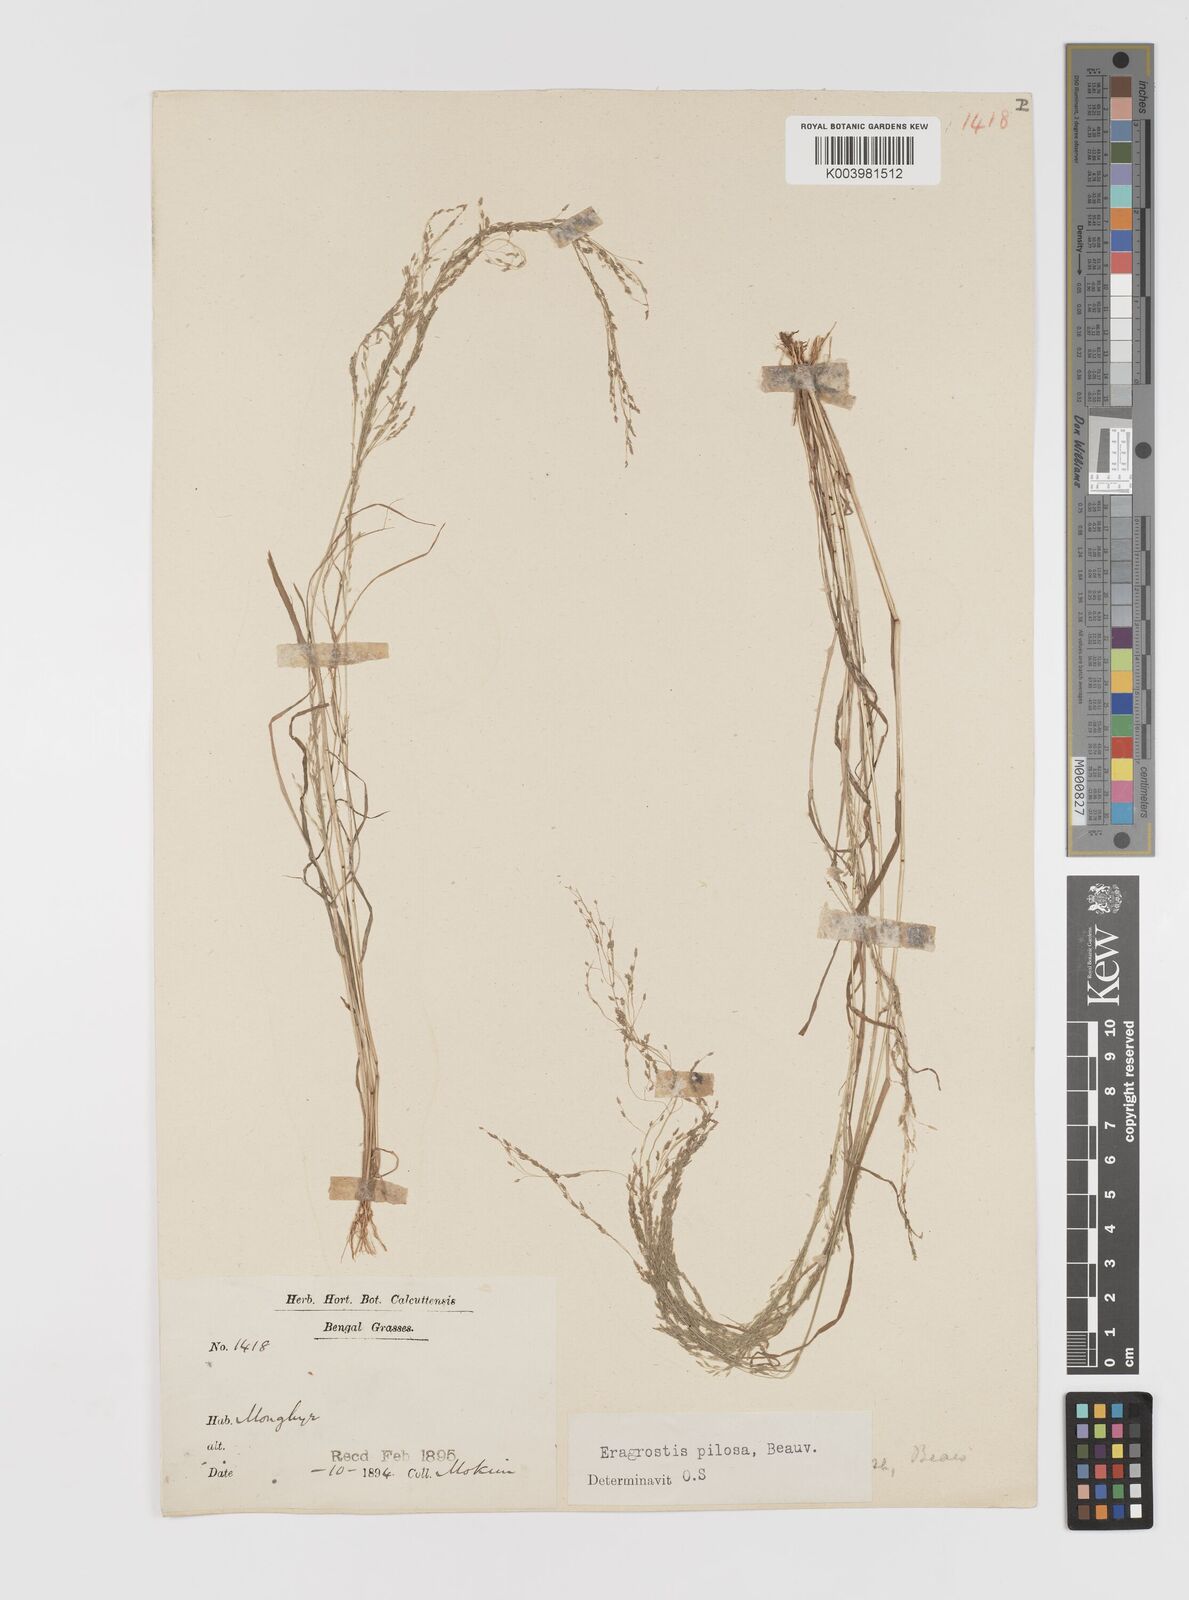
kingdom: Plantae
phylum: Tracheophyta
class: Liliopsida
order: Poales
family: Poaceae
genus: Eragrostis
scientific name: Eragrostis pilosa
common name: Indian lovegrass
